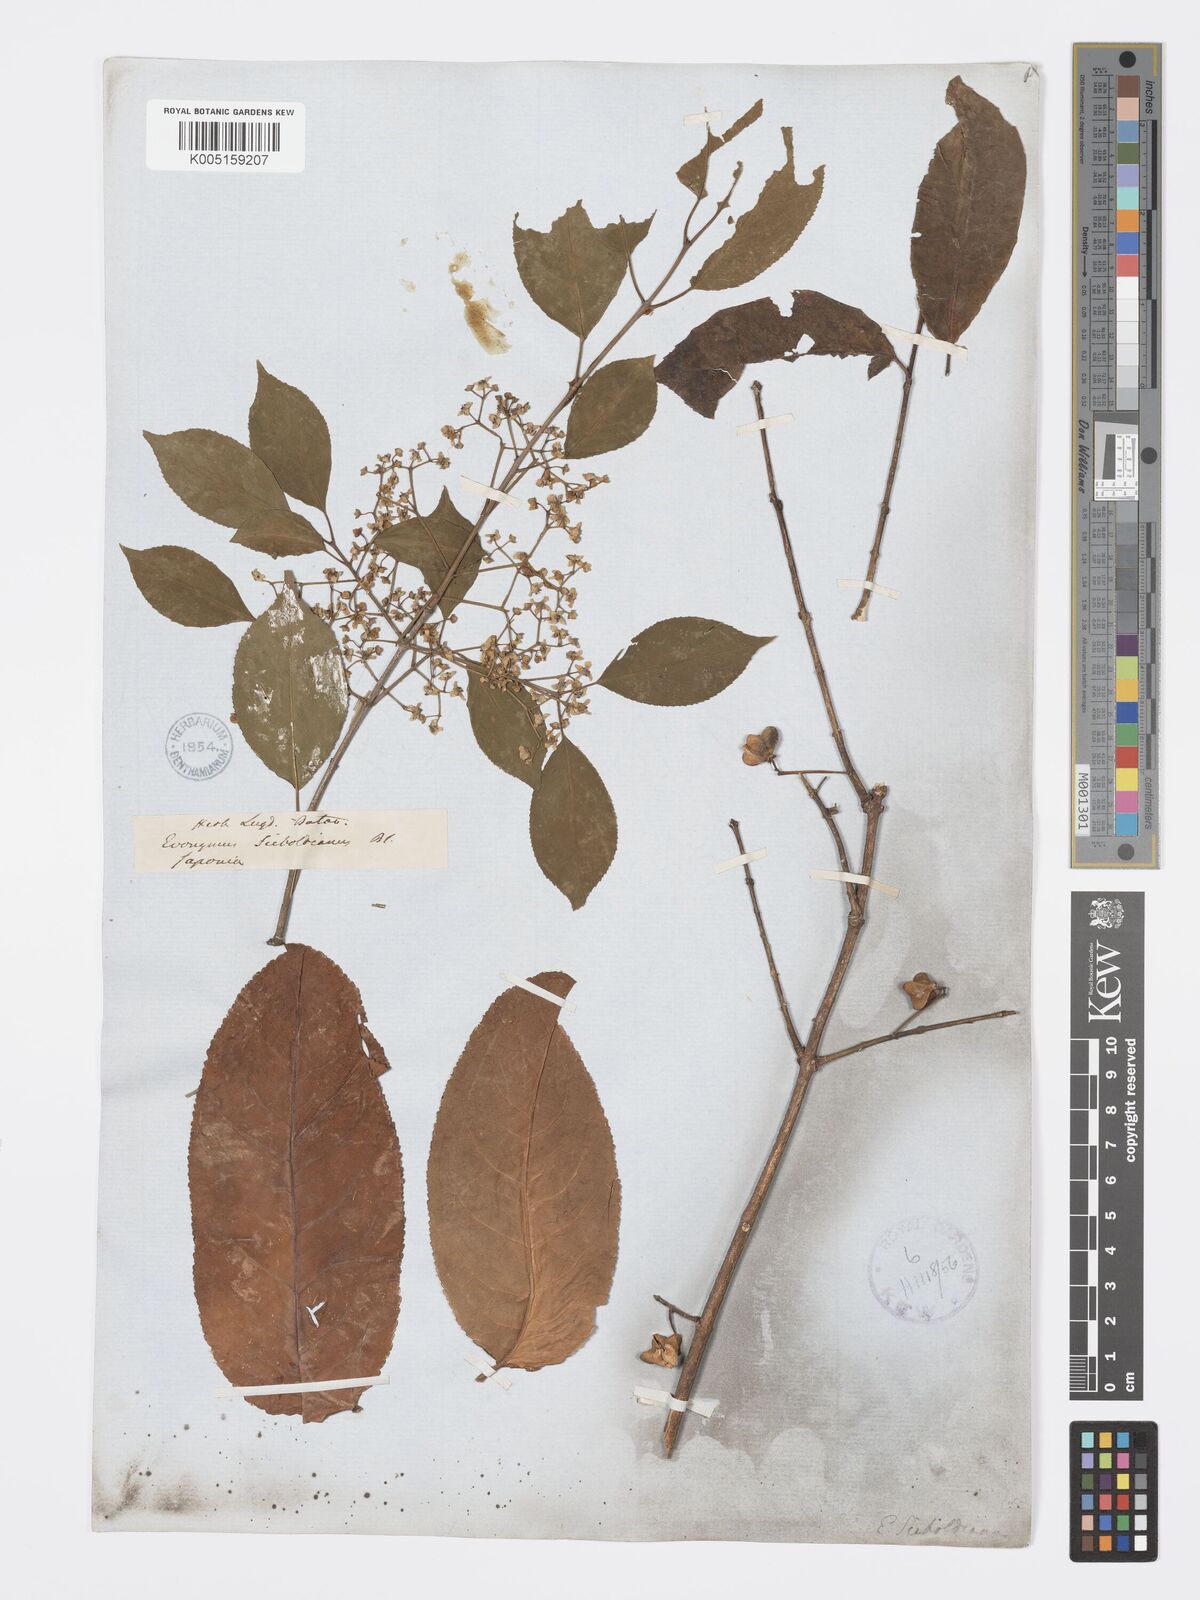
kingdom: Plantae
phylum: Tracheophyta
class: Magnoliopsida
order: Celastrales
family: Celastraceae
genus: Euonymus
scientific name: Euonymus hamiltonianus
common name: Hamilton's spindletree
